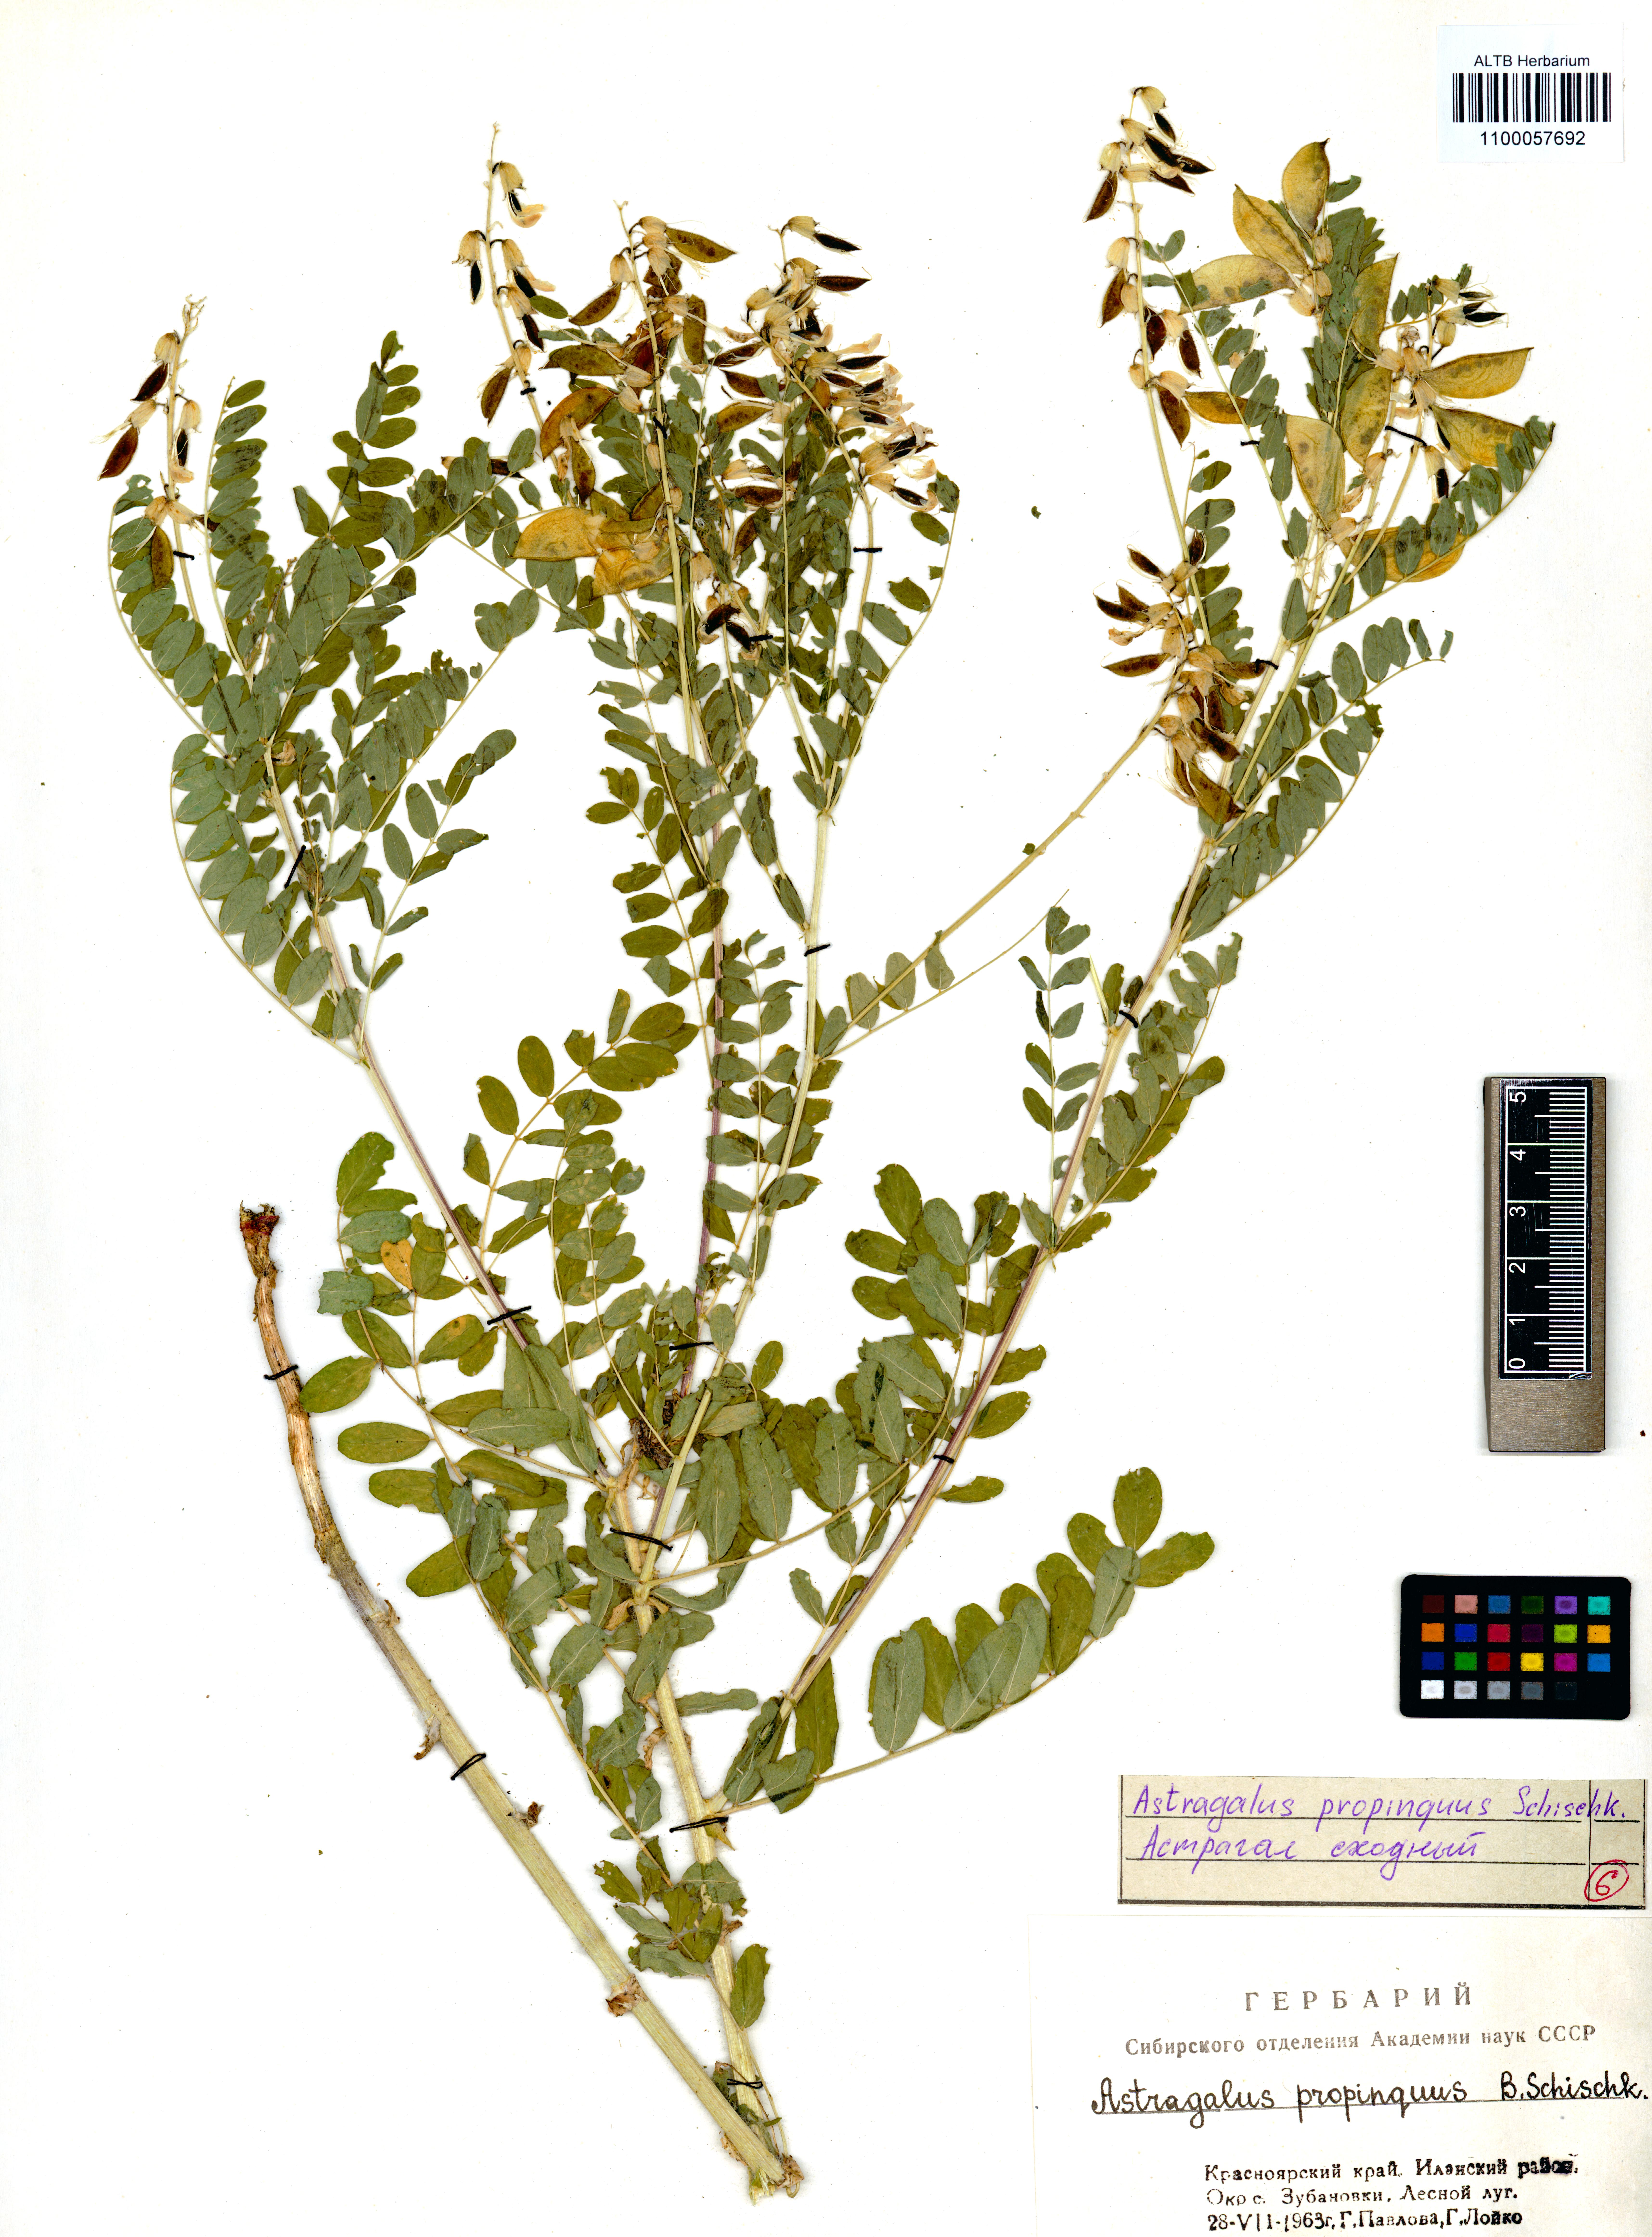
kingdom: Plantae
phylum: Tracheophyta
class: Magnoliopsida
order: Fabales
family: Fabaceae
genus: Astragalus
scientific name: Astragalus mongholicus
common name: Membranous milk-vetch
